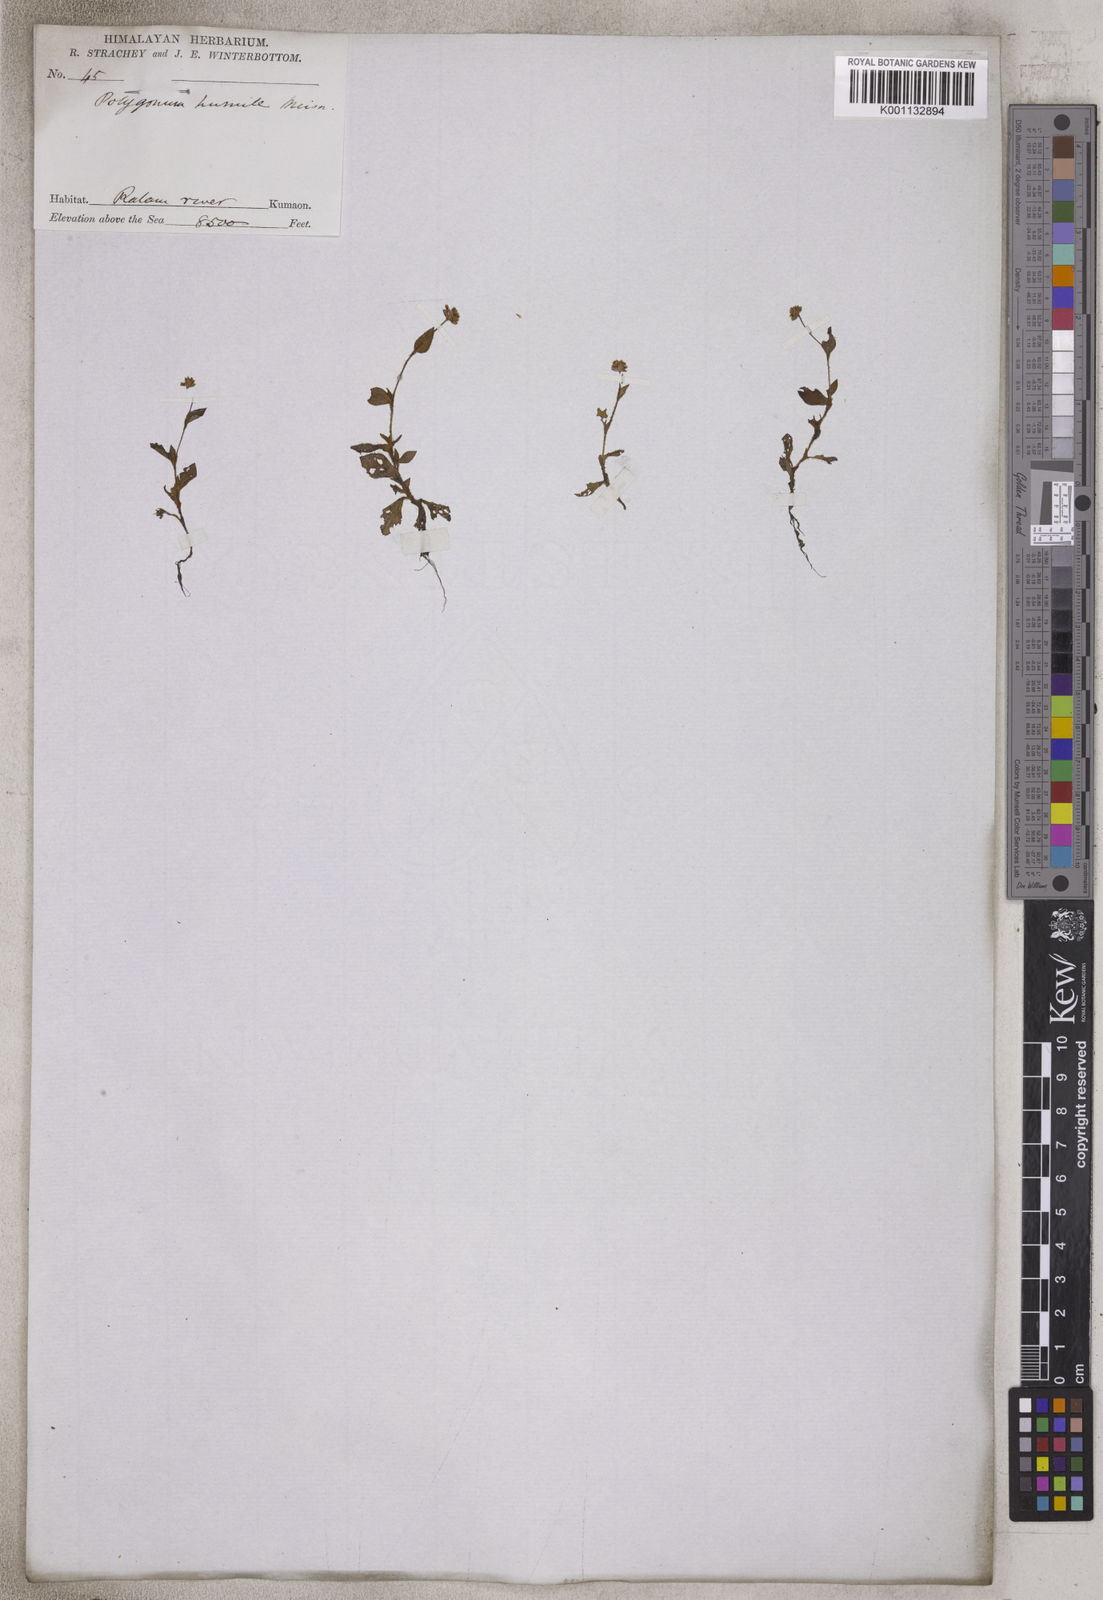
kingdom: Plantae
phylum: Tracheophyta
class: Magnoliopsida
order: Caryophyllales
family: Polygonaceae
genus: Persicaria
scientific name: Persicaria humilis
